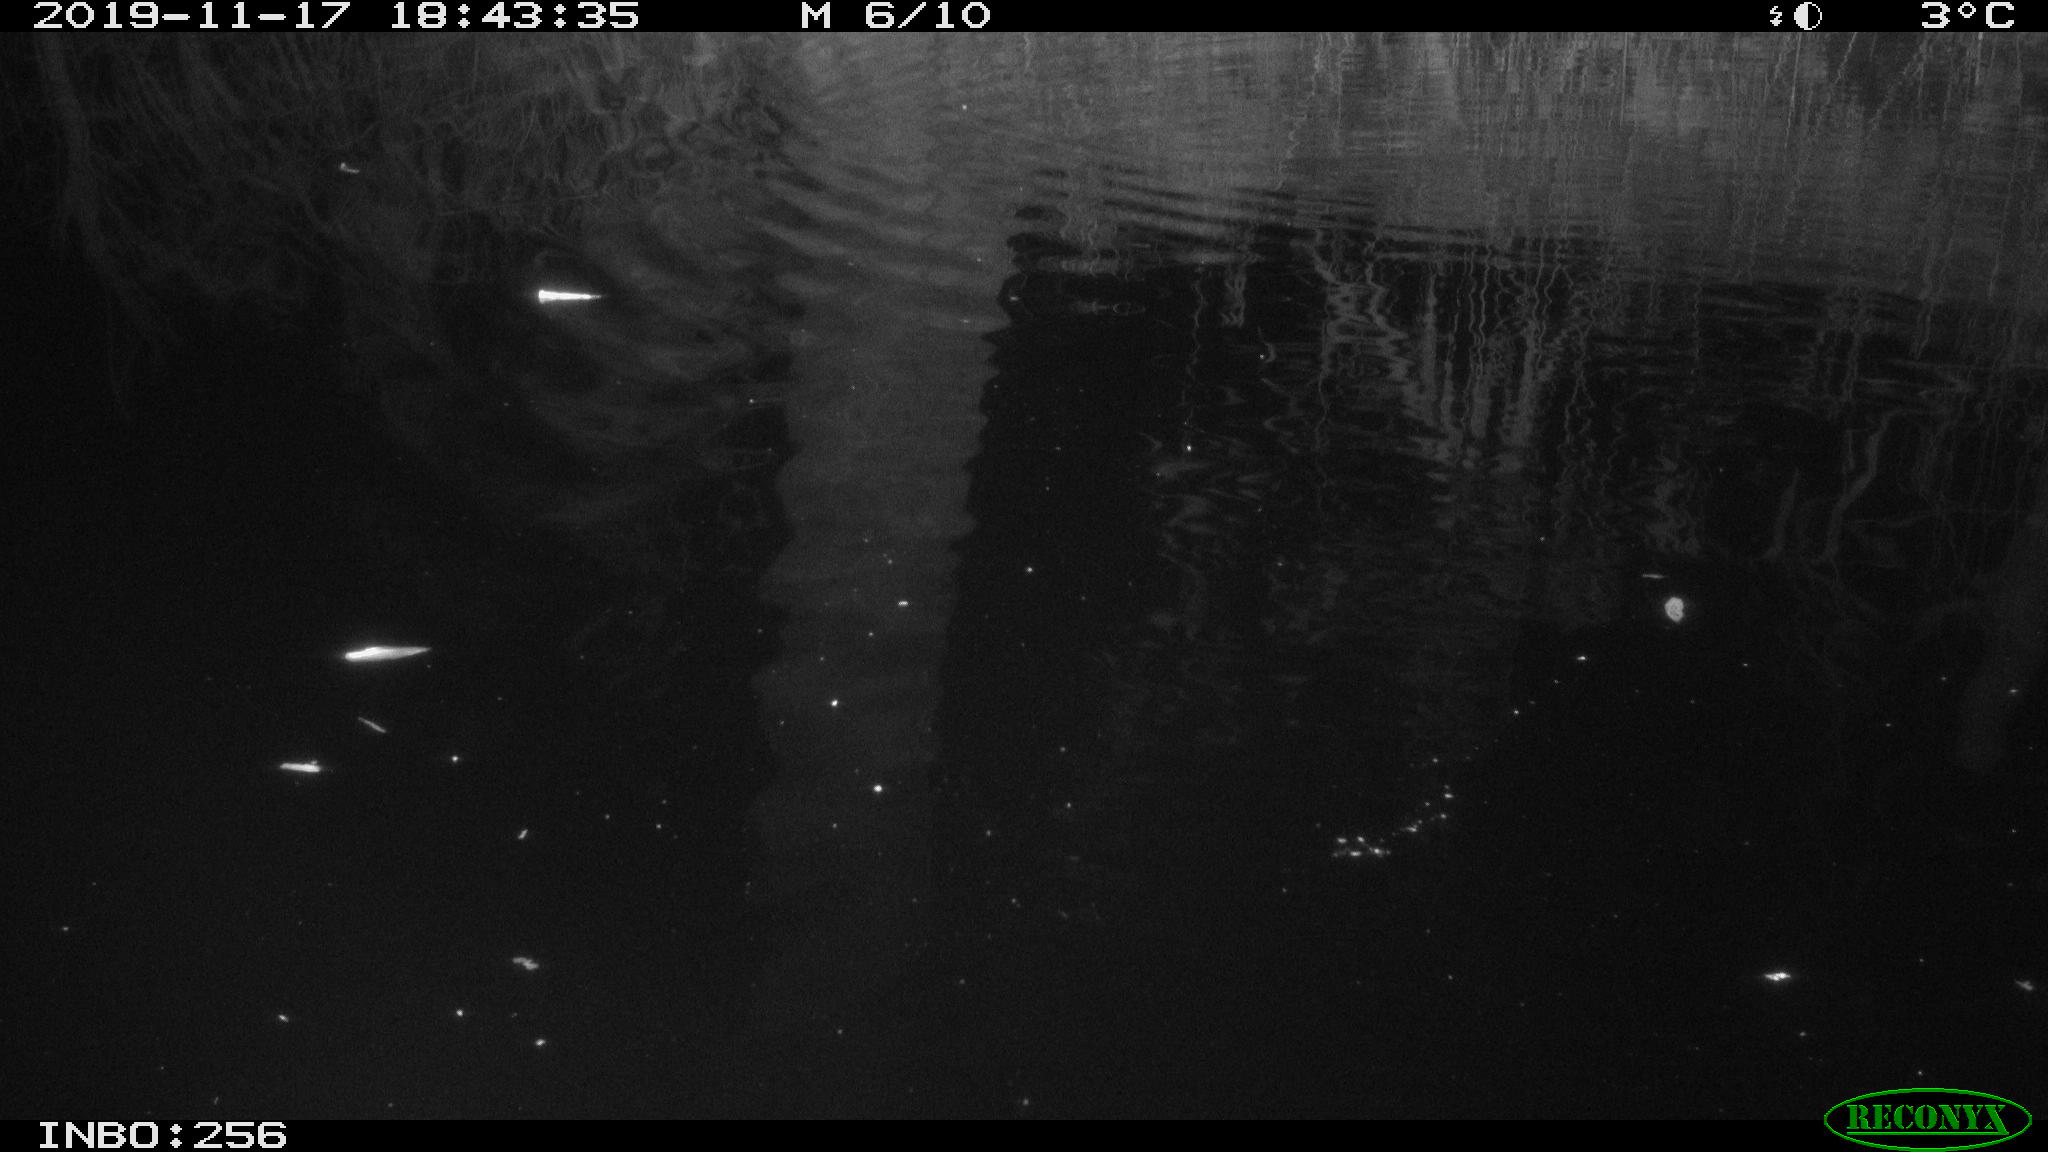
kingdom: Animalia
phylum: Chordata
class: Mammalia
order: Rodentia
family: Muridae
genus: Rattus
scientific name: Rattus norvegicus
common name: Brown rat
